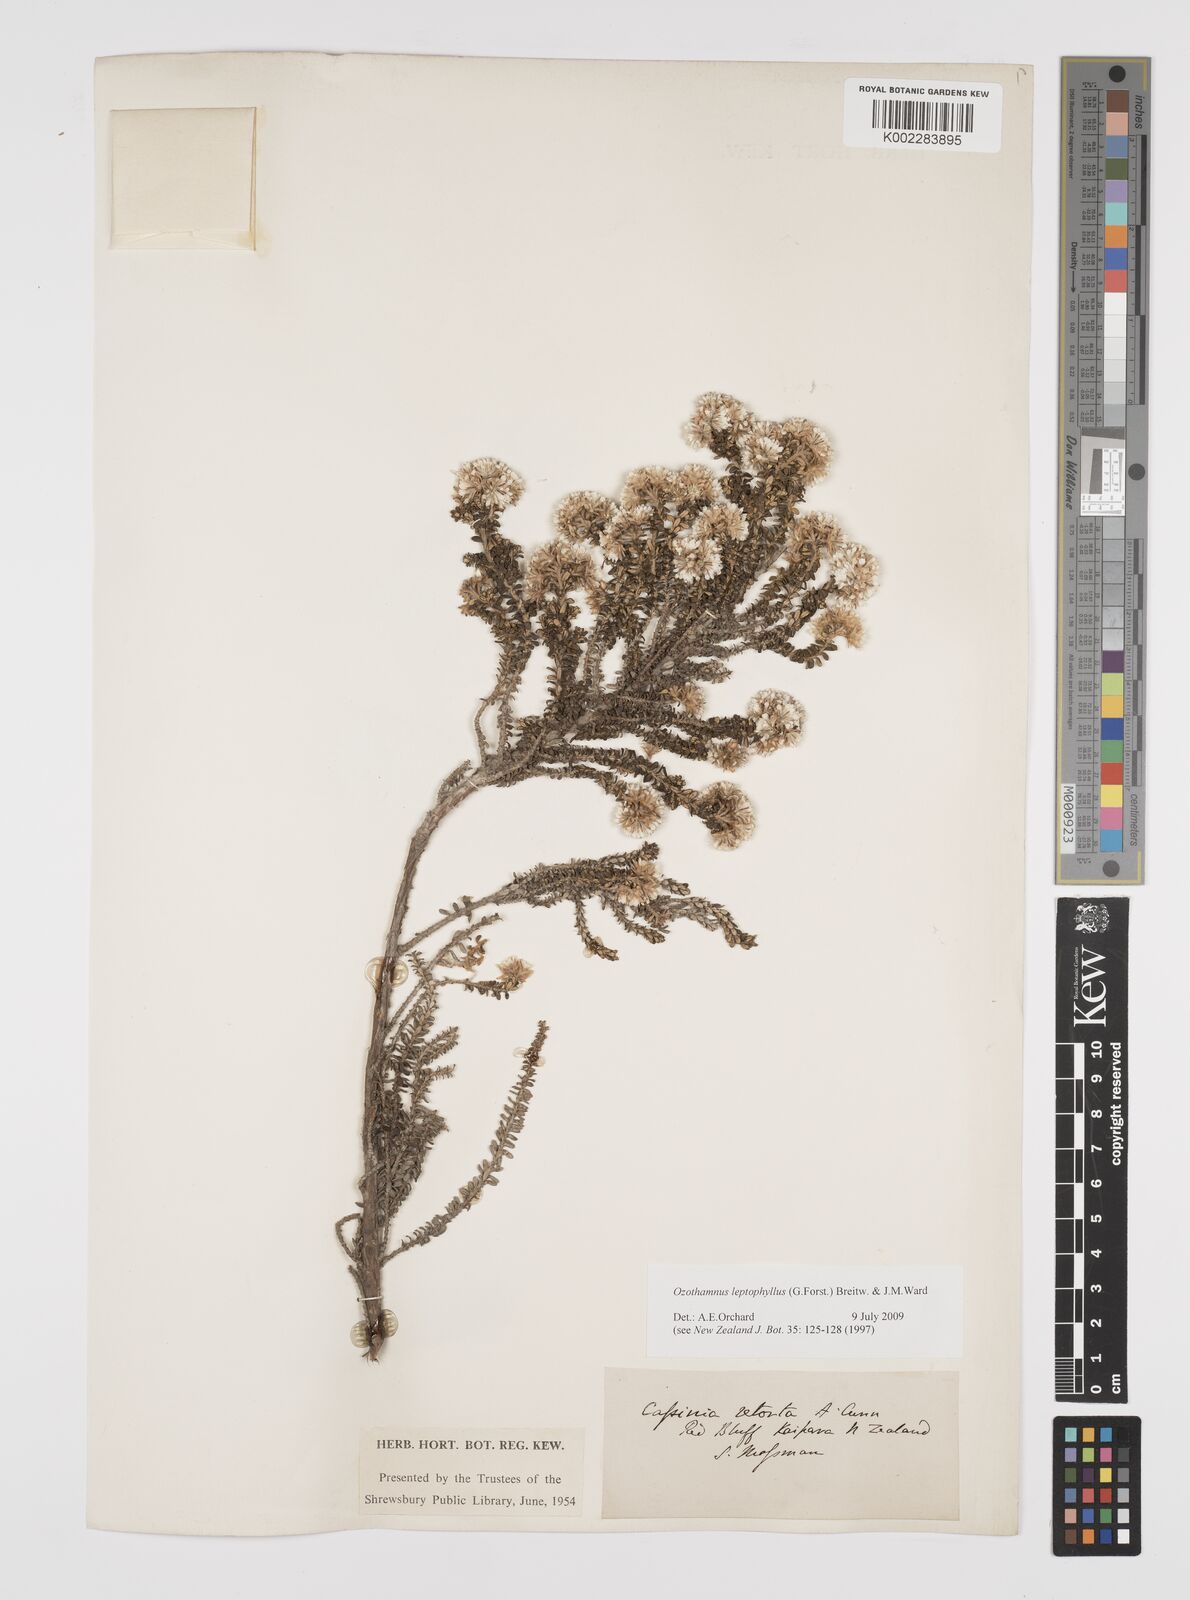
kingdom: Plantae
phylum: Tracheophyta
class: Magnoliopsida
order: Asterales
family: Asteraceae
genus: Ozothamnus
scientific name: Ozothamnus leptophyllus
